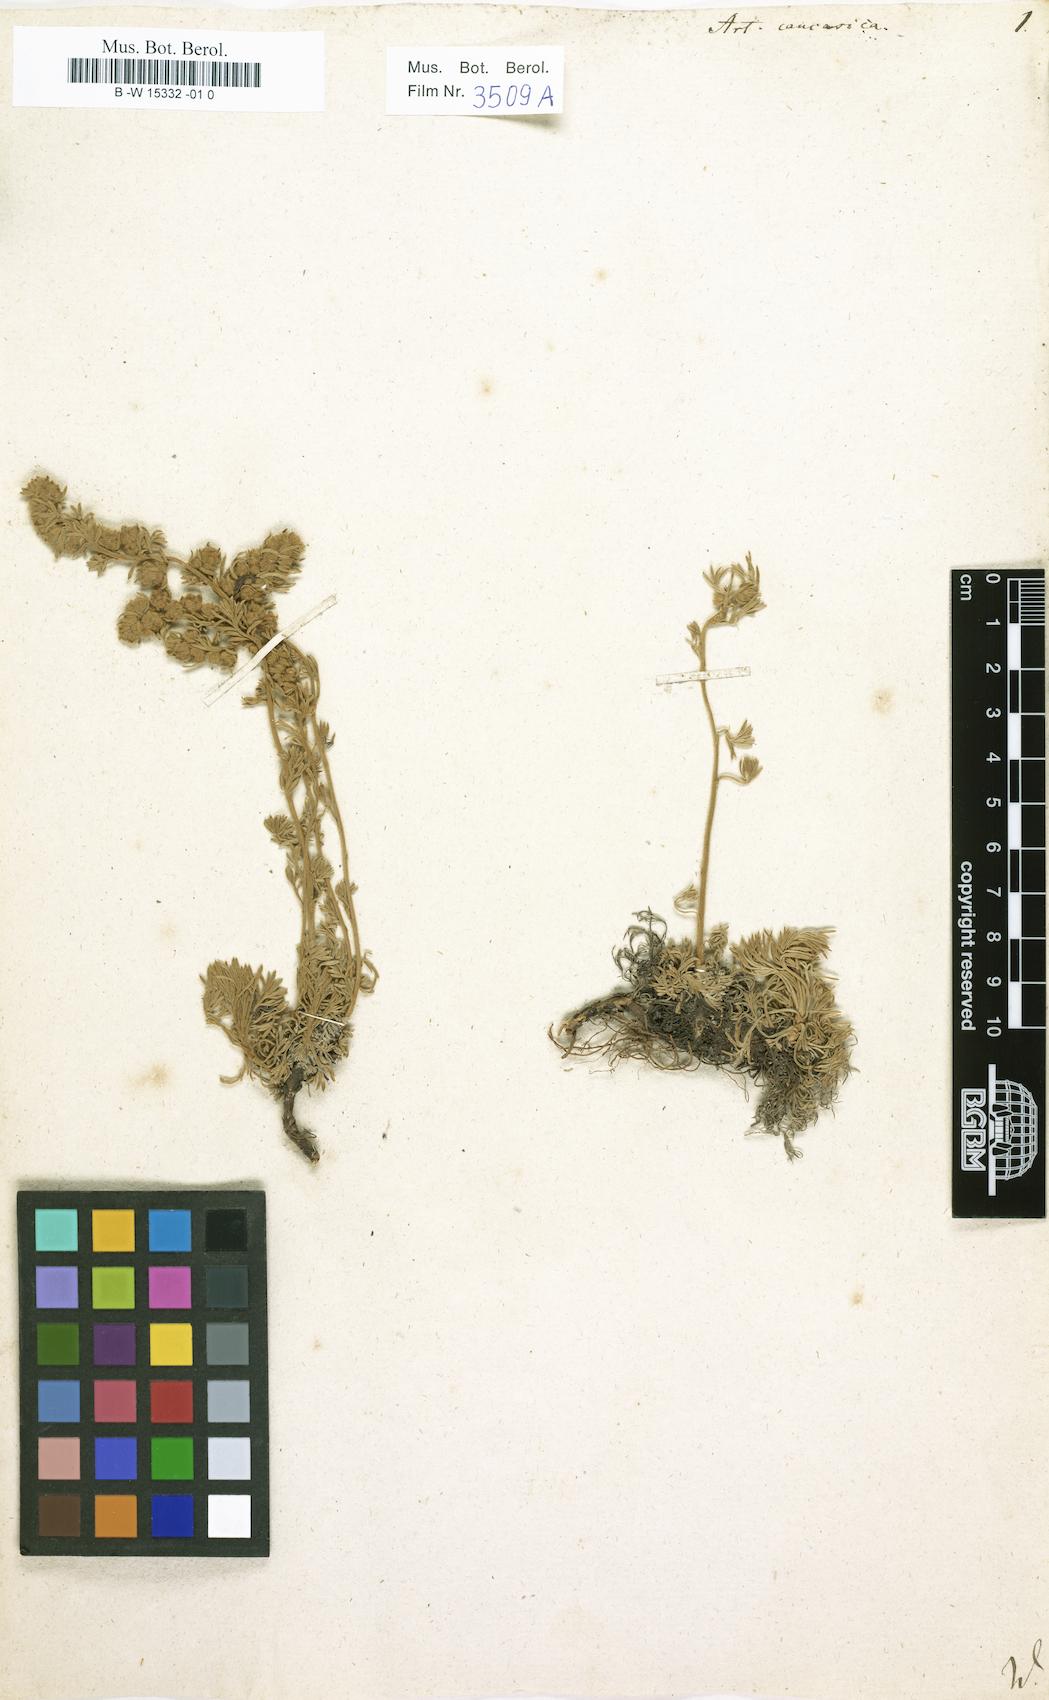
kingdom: Plantae
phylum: Tracheophyta
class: Magnoliopsida
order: Asterales
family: Asteraceae
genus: Artemisia
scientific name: Artemisia alpina
